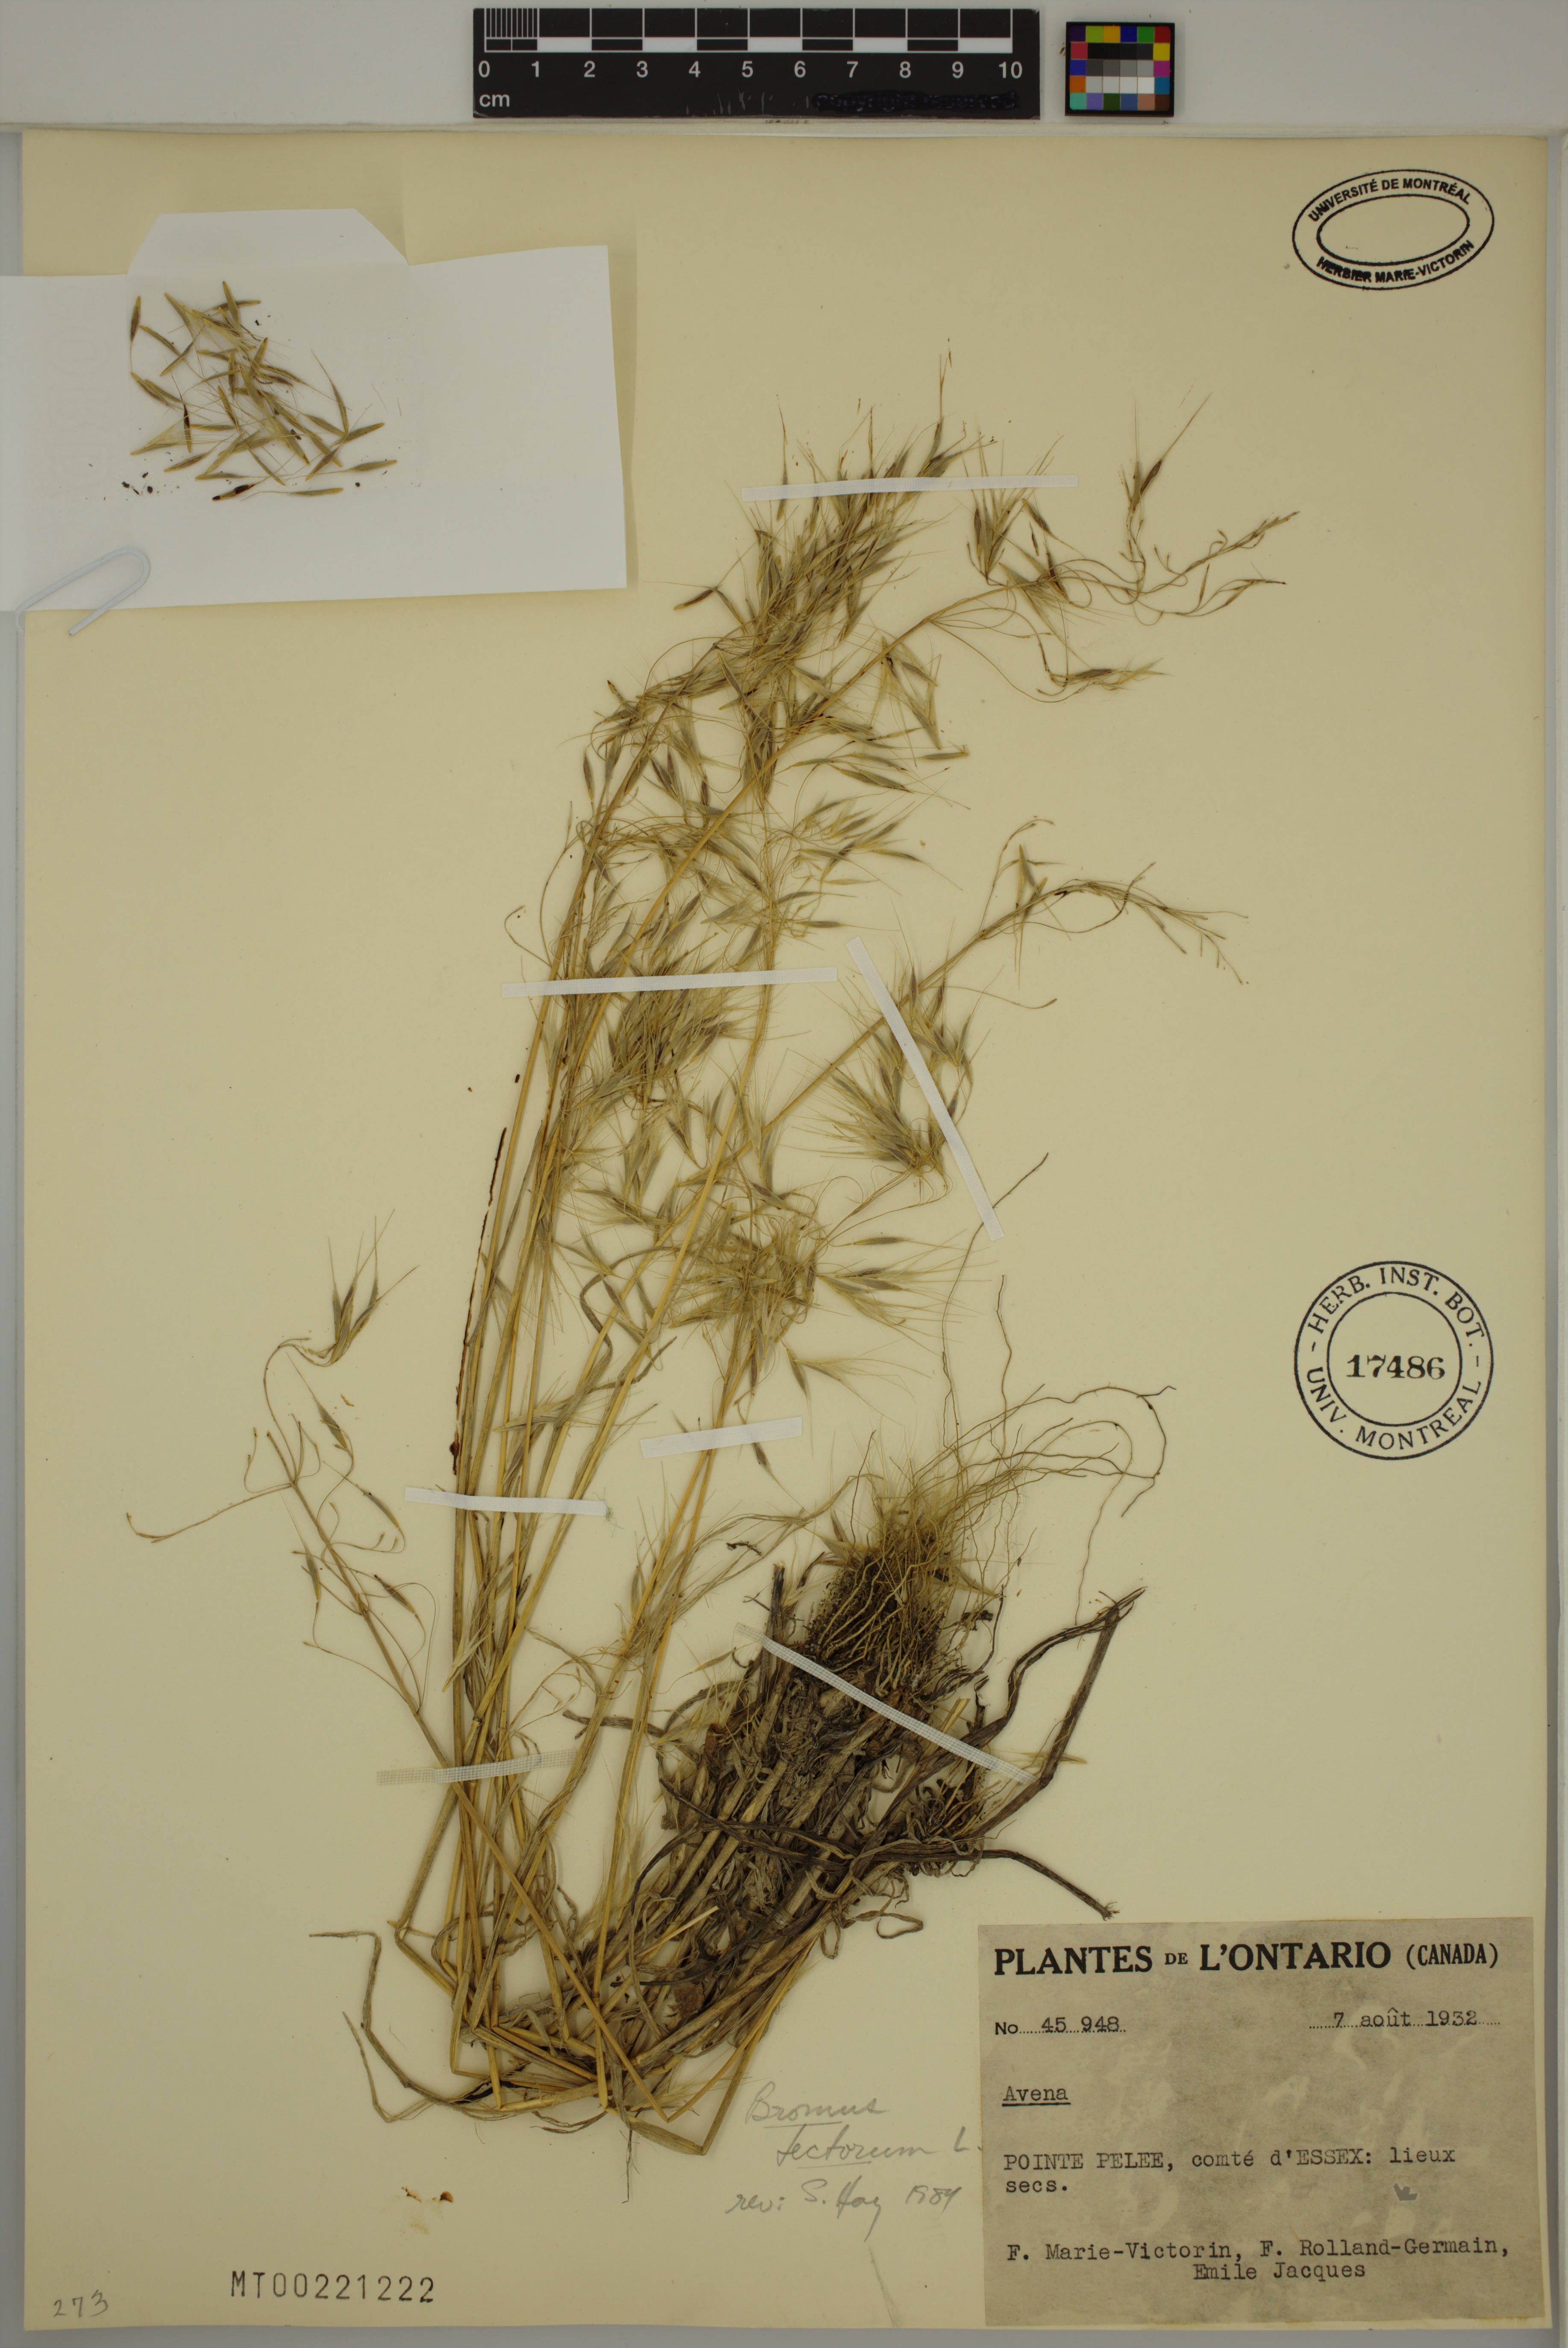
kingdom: Plantae
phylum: Tracheophyta
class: Liliopsida
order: Poales
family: Poaceae
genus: Bromus
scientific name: Bromus tectorum
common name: Cheatgrass
